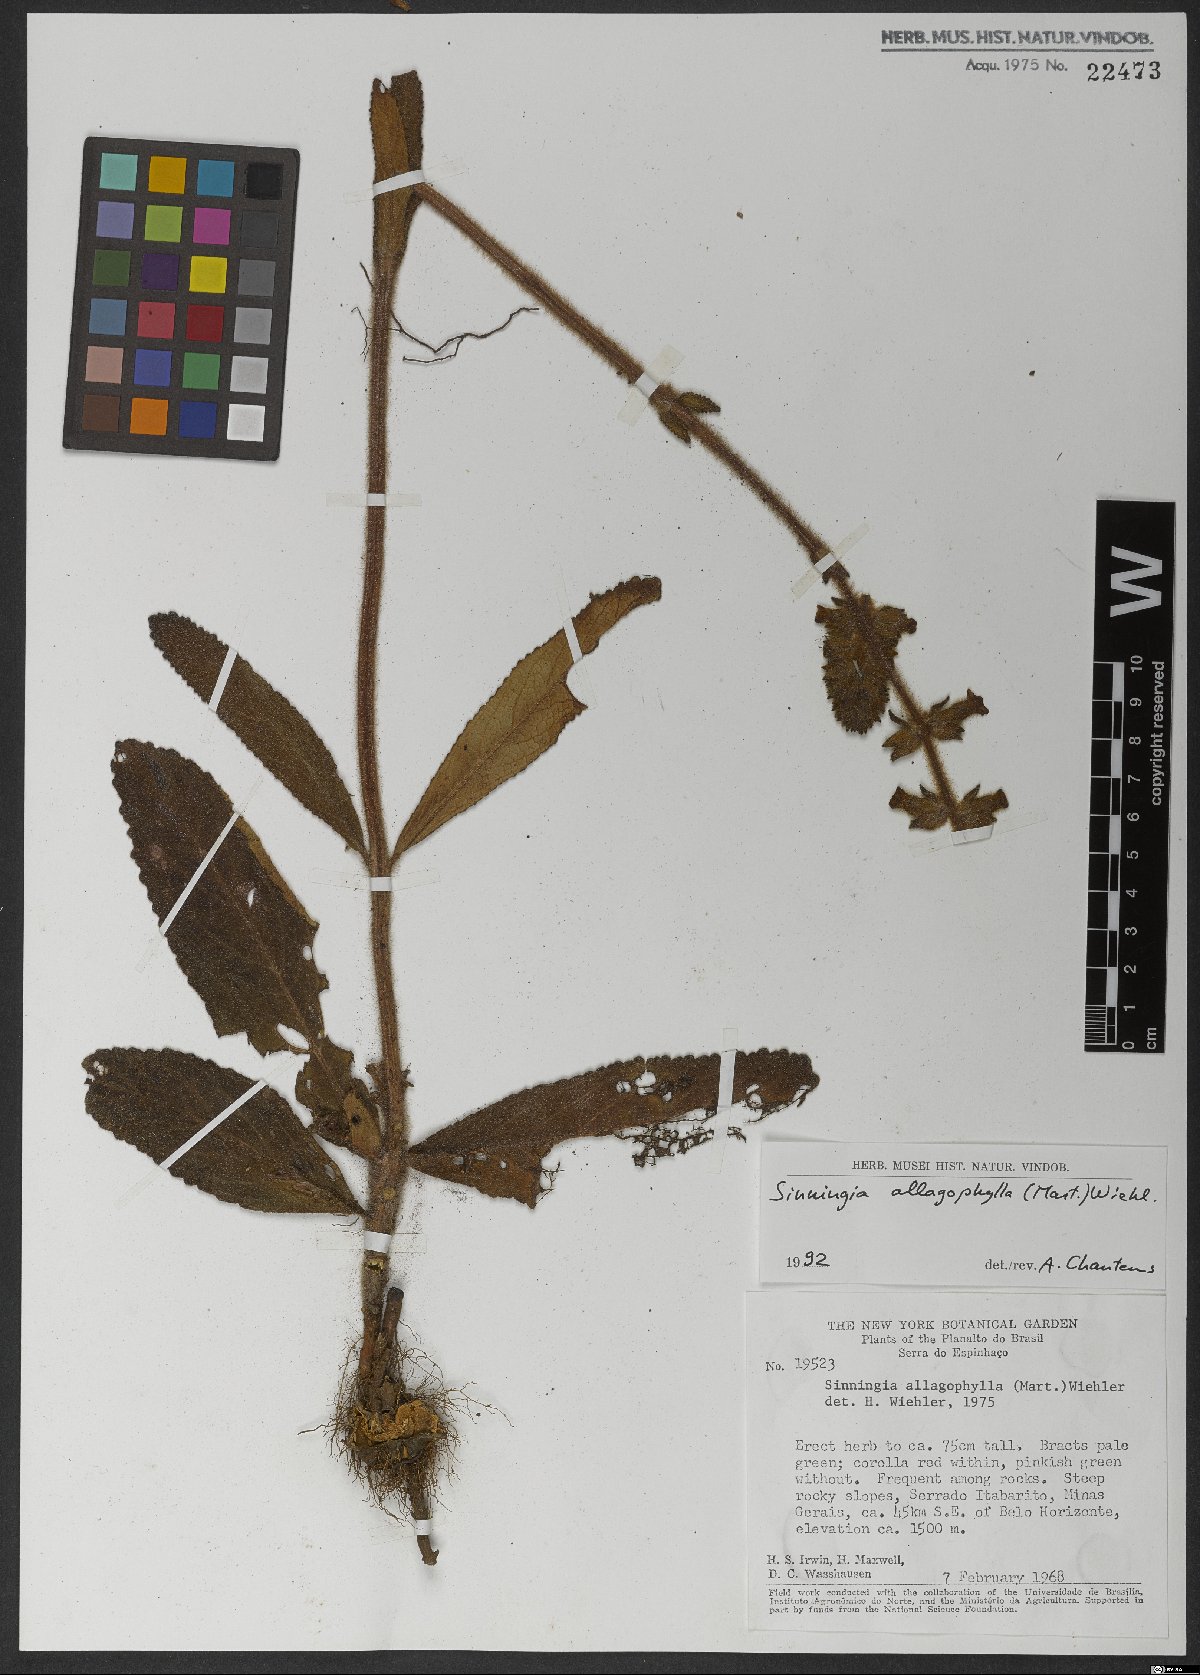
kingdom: Plantae
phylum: Tracheophyta
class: Magnoliopsida
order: Lamiales
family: Gesneriaceae
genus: Sinningia
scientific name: Sinningia allagophylla
